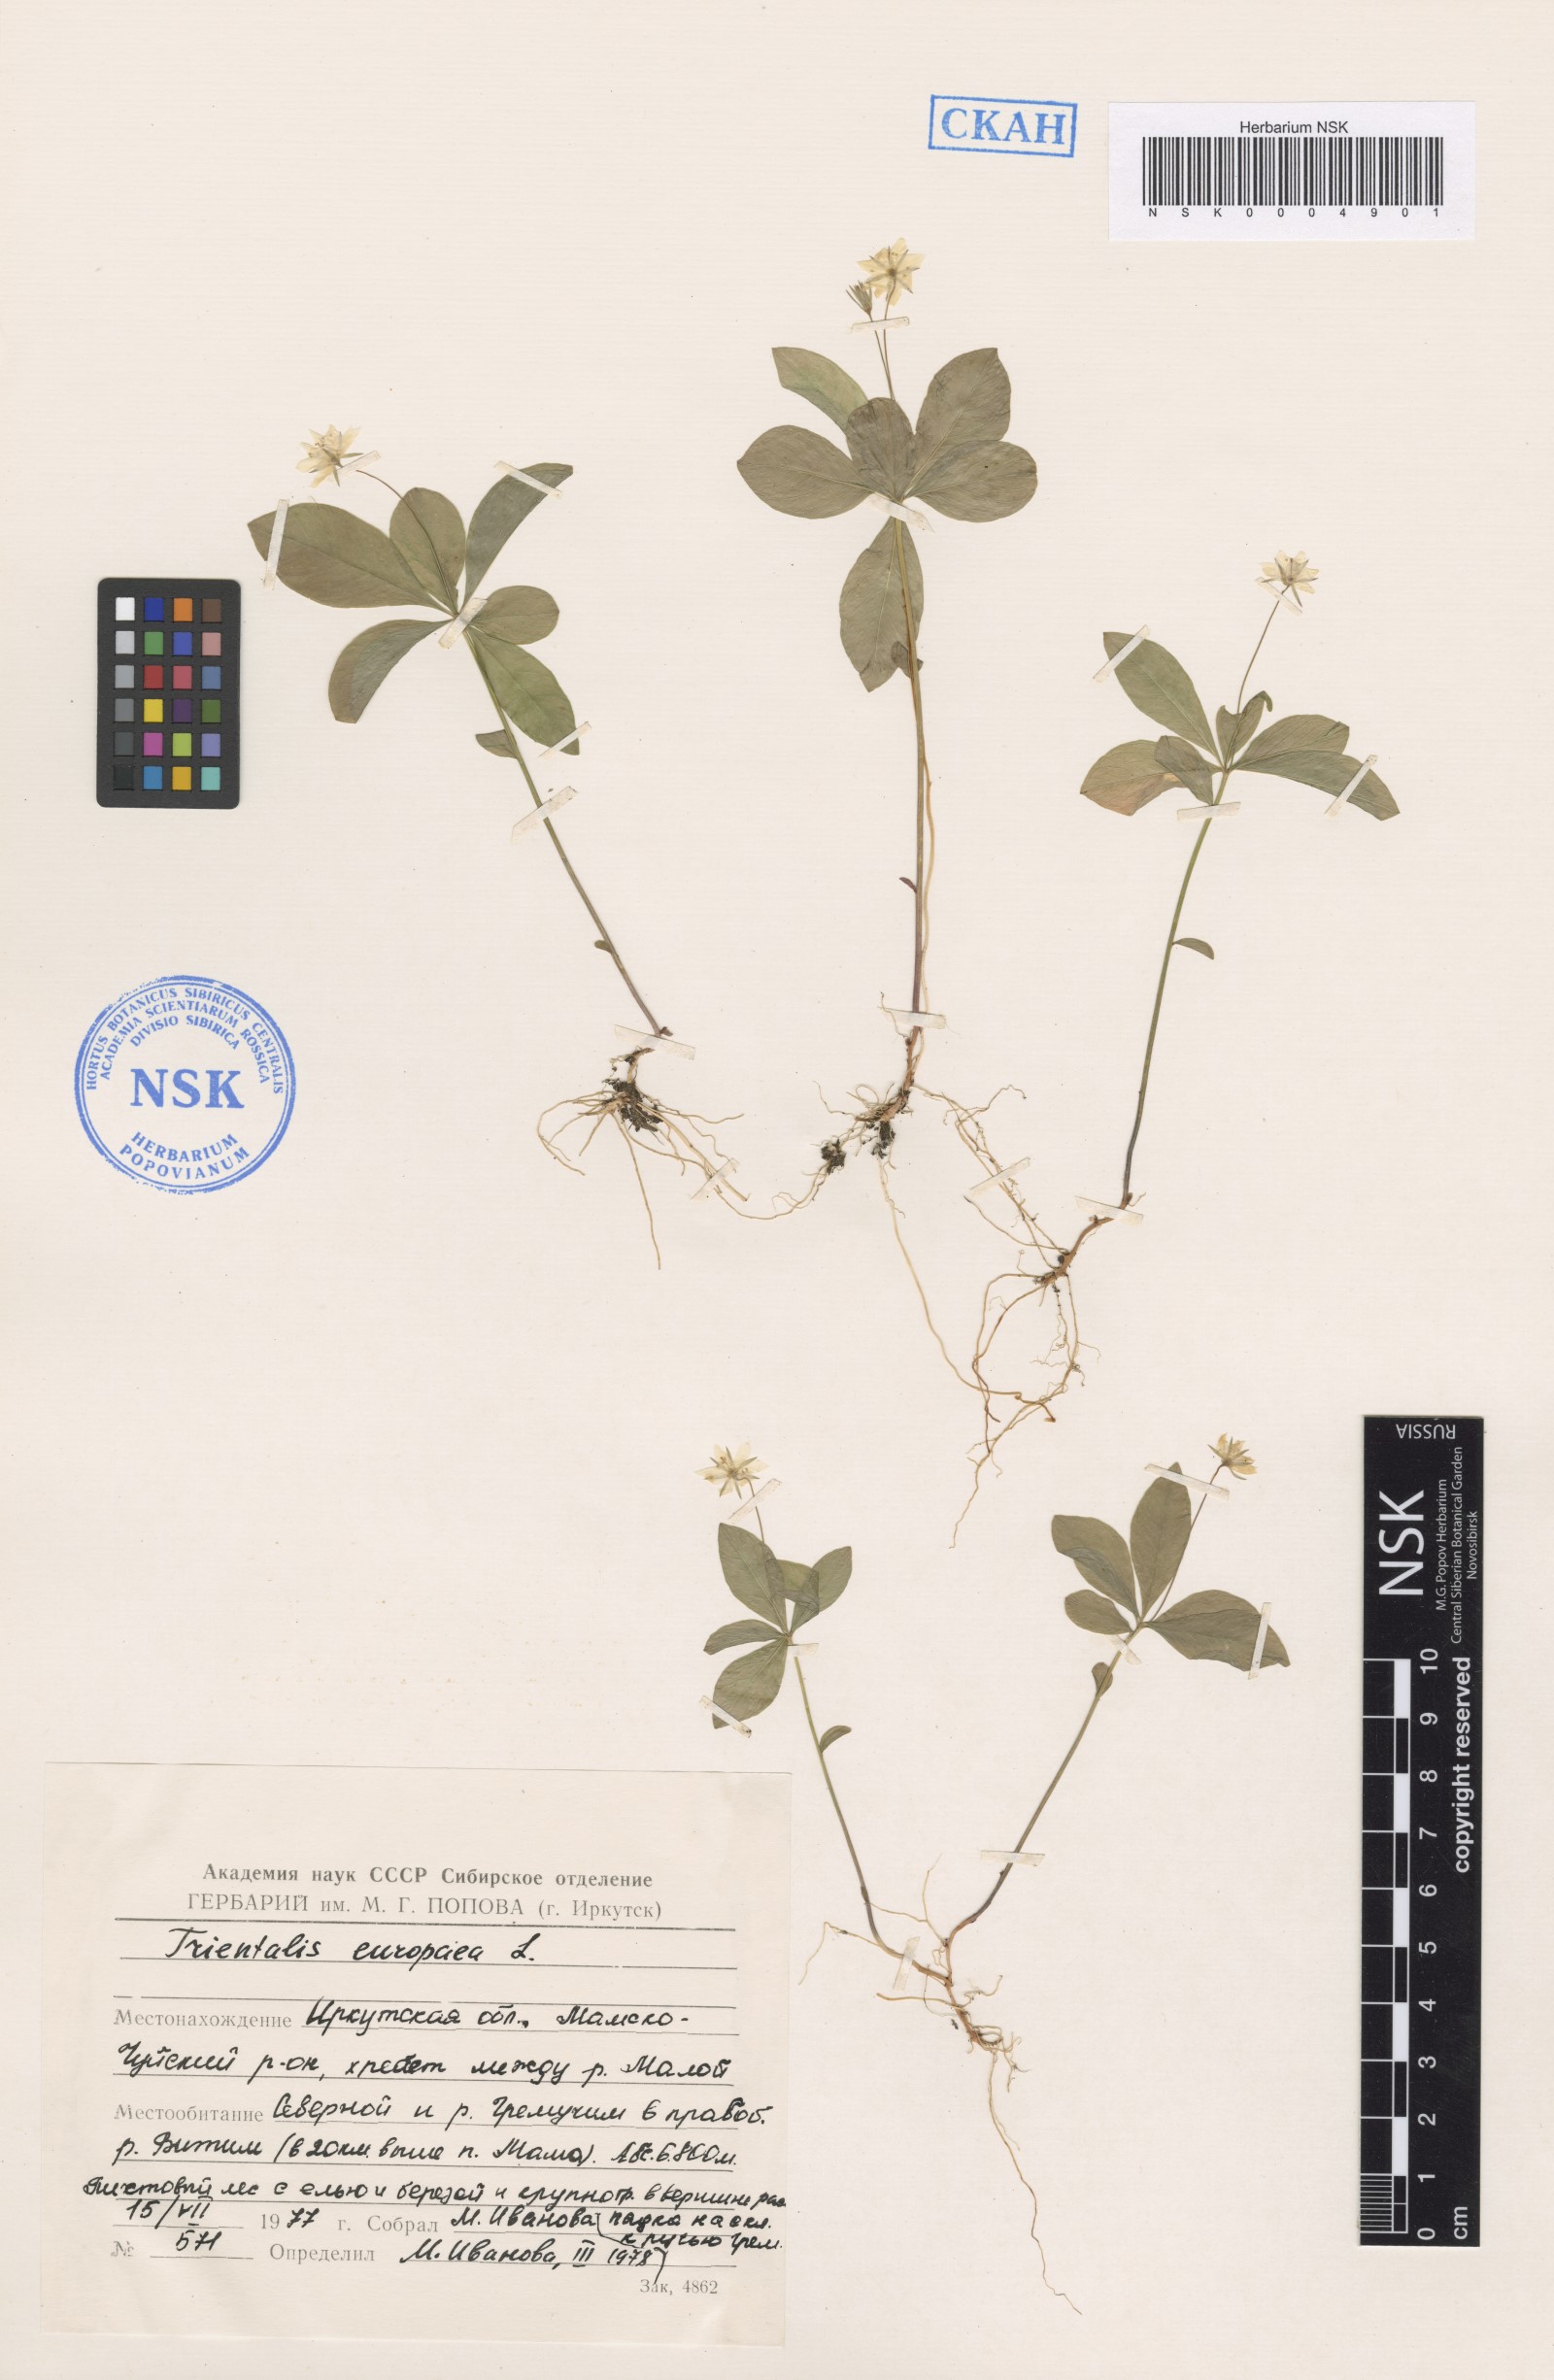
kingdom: Plantae
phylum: Tracheophyta
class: Magnoliopsida
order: Ericales
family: Primulaceae
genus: Lysimachia
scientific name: Lysimachia europaea
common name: Arctic starflower
